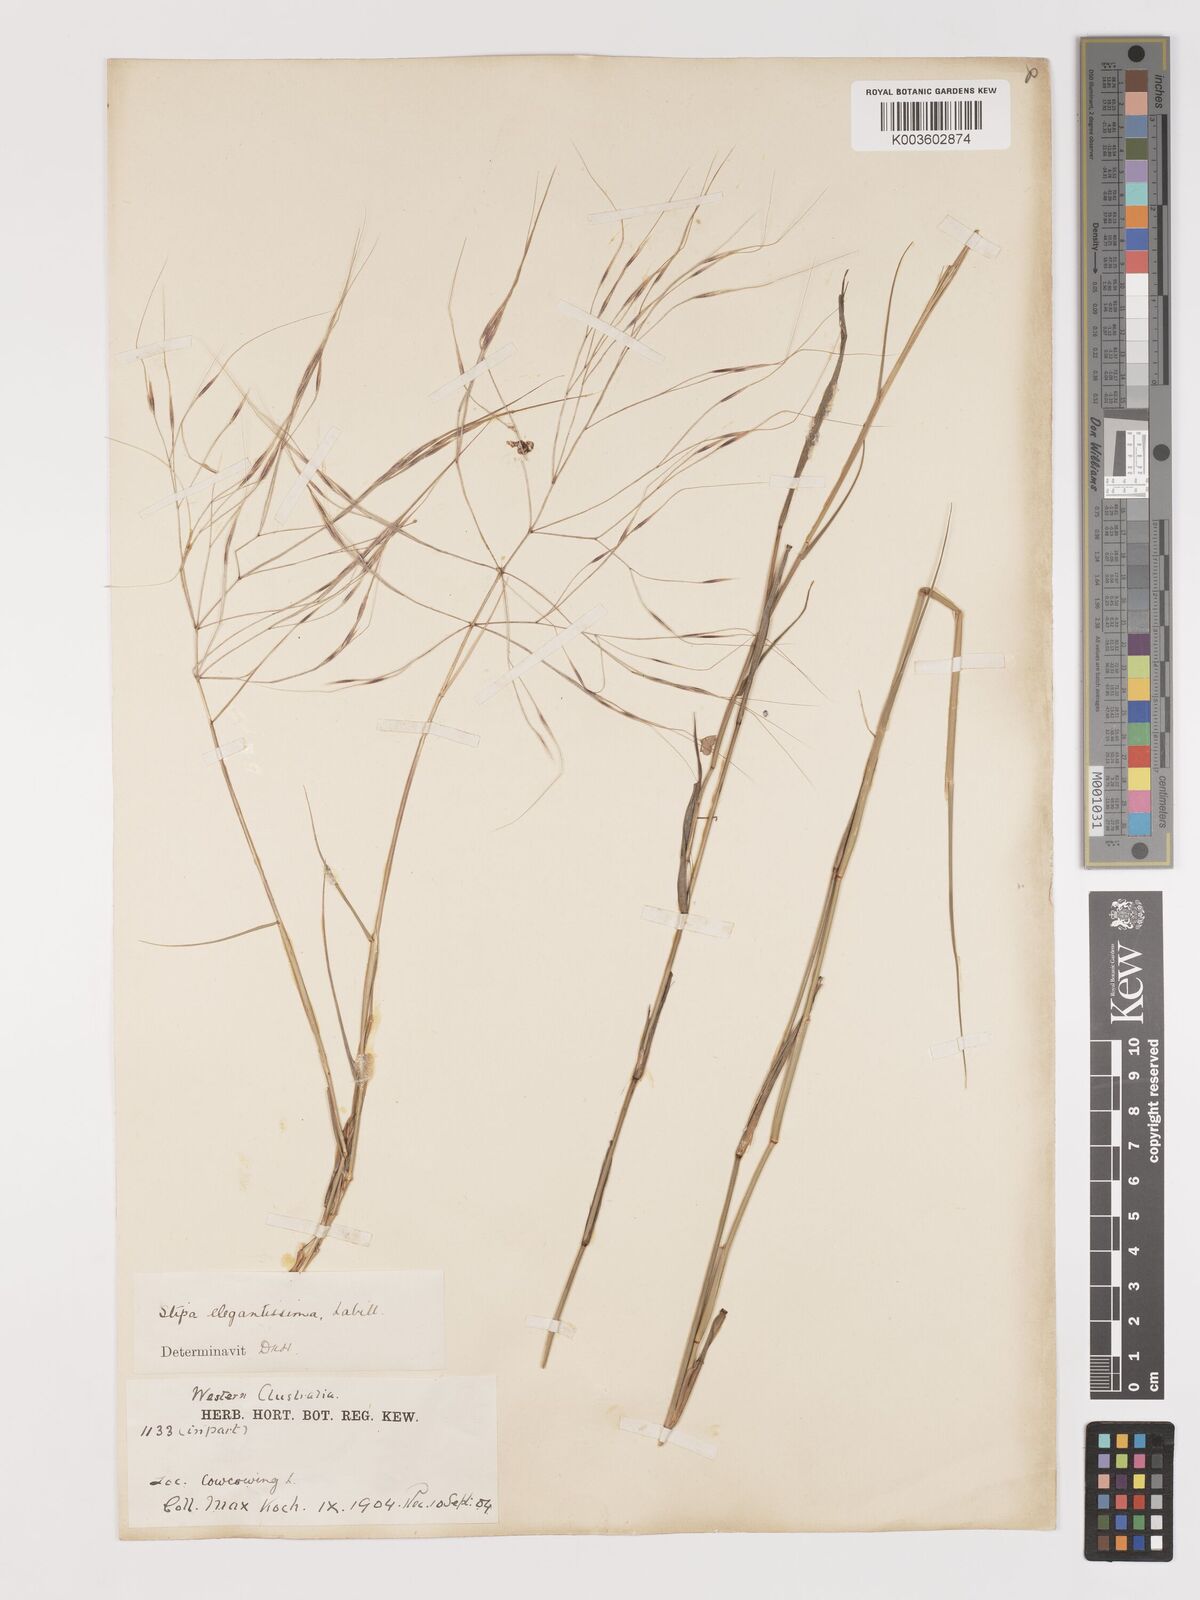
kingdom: Plantae
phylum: Tracheophyta
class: Liliopsida
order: Poales
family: Poaceae
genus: Austrostipa
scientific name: Austrostipa elegantissima
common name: Feather spear grass
